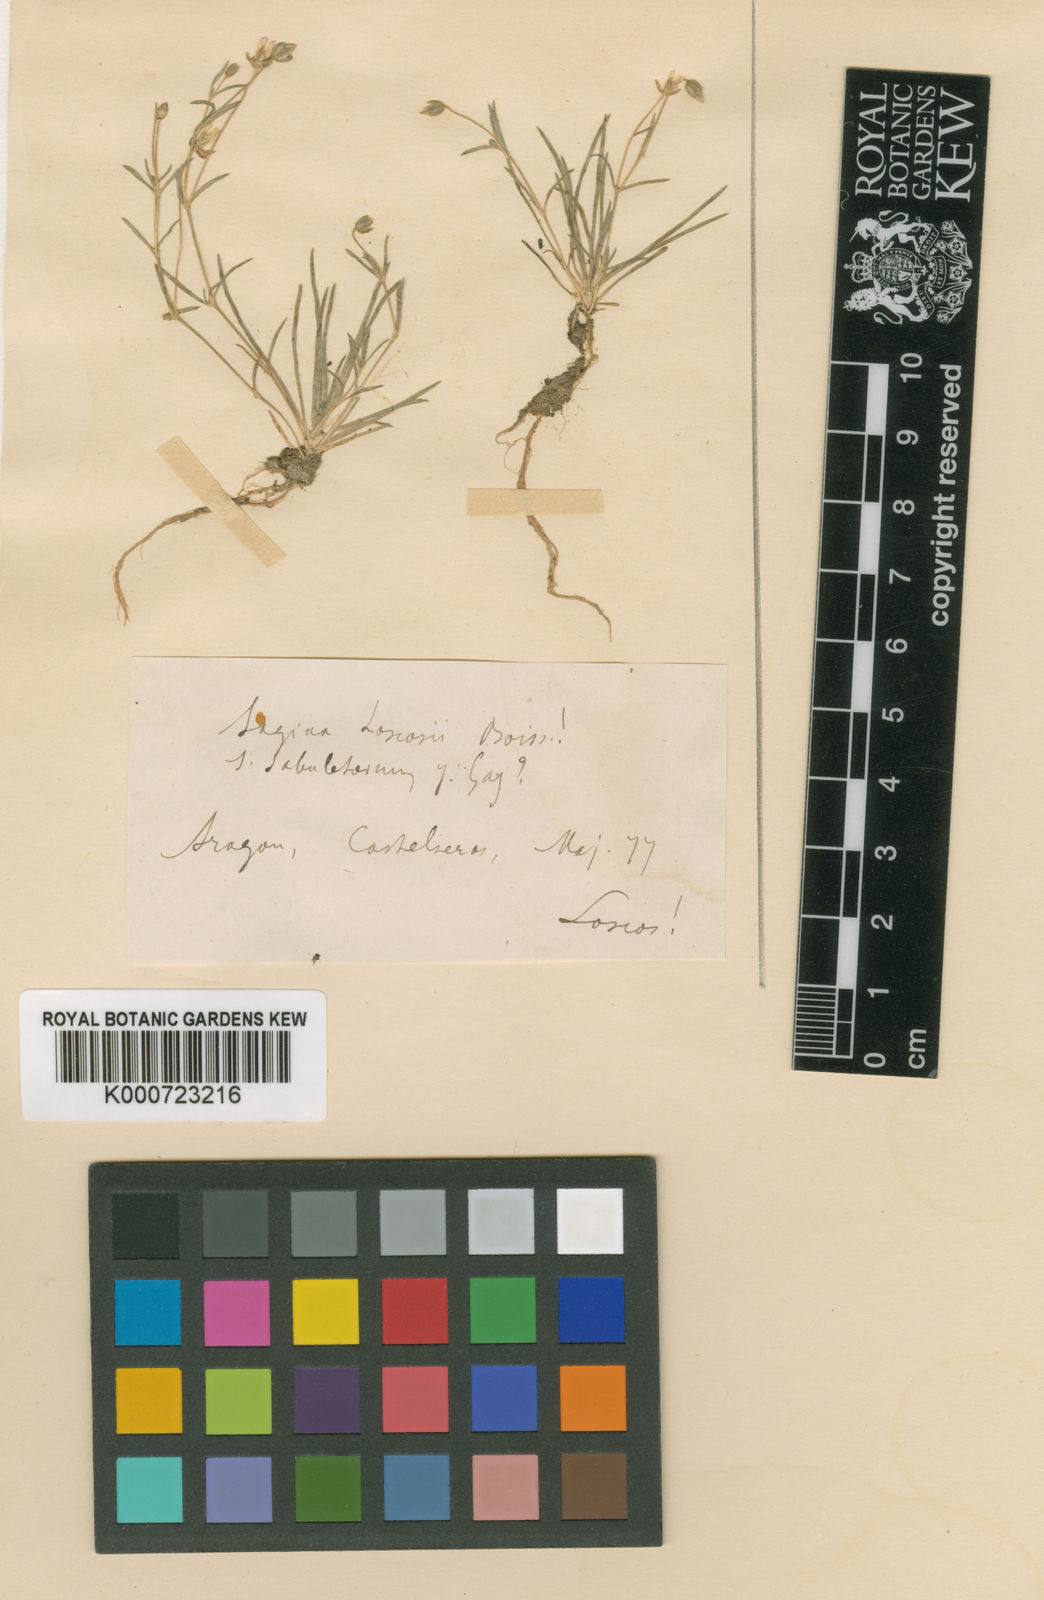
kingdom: Plantae
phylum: Tracheophyta
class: Magnoliopsida
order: Caryophyllales
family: Caryophyllaceae
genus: Sagina
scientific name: Sagina sabuletorum
